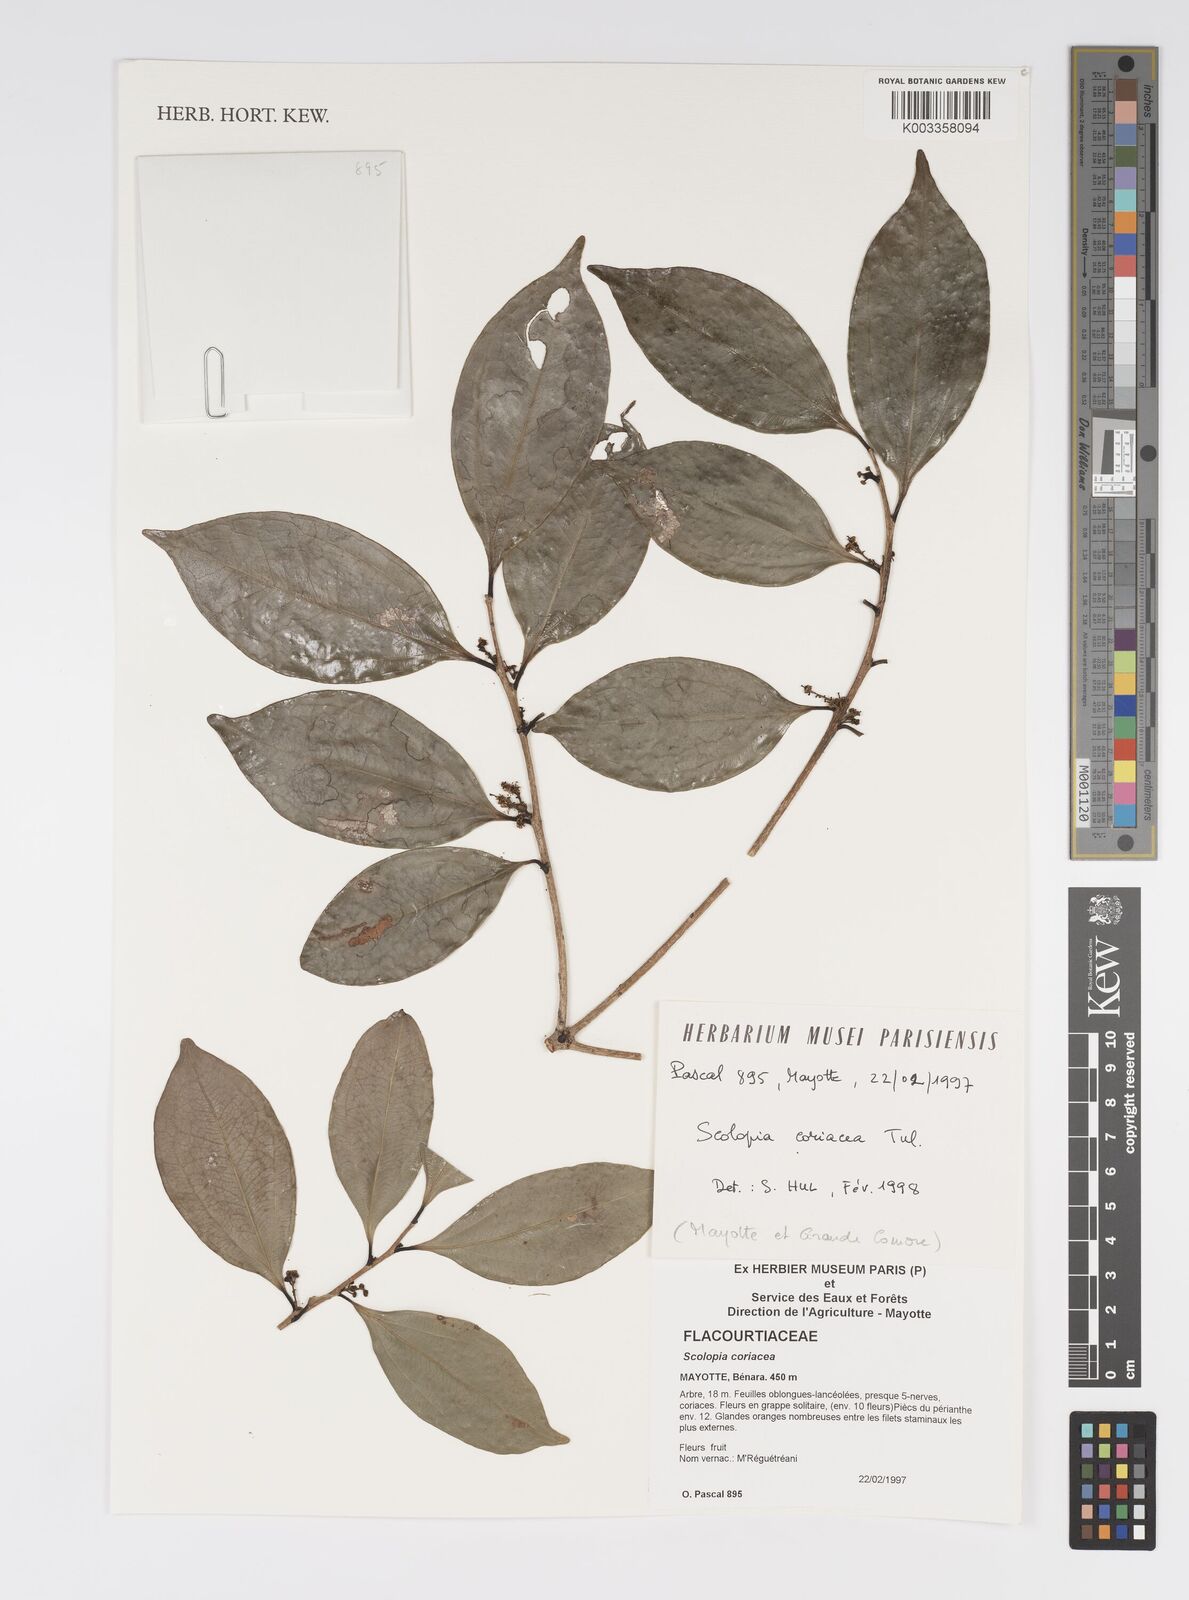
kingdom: Plantae
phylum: Tracheophyta
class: Magnoliopsida
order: Malpighiales
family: Salicaceae
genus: Scolopia
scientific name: Scolopia coriacea
